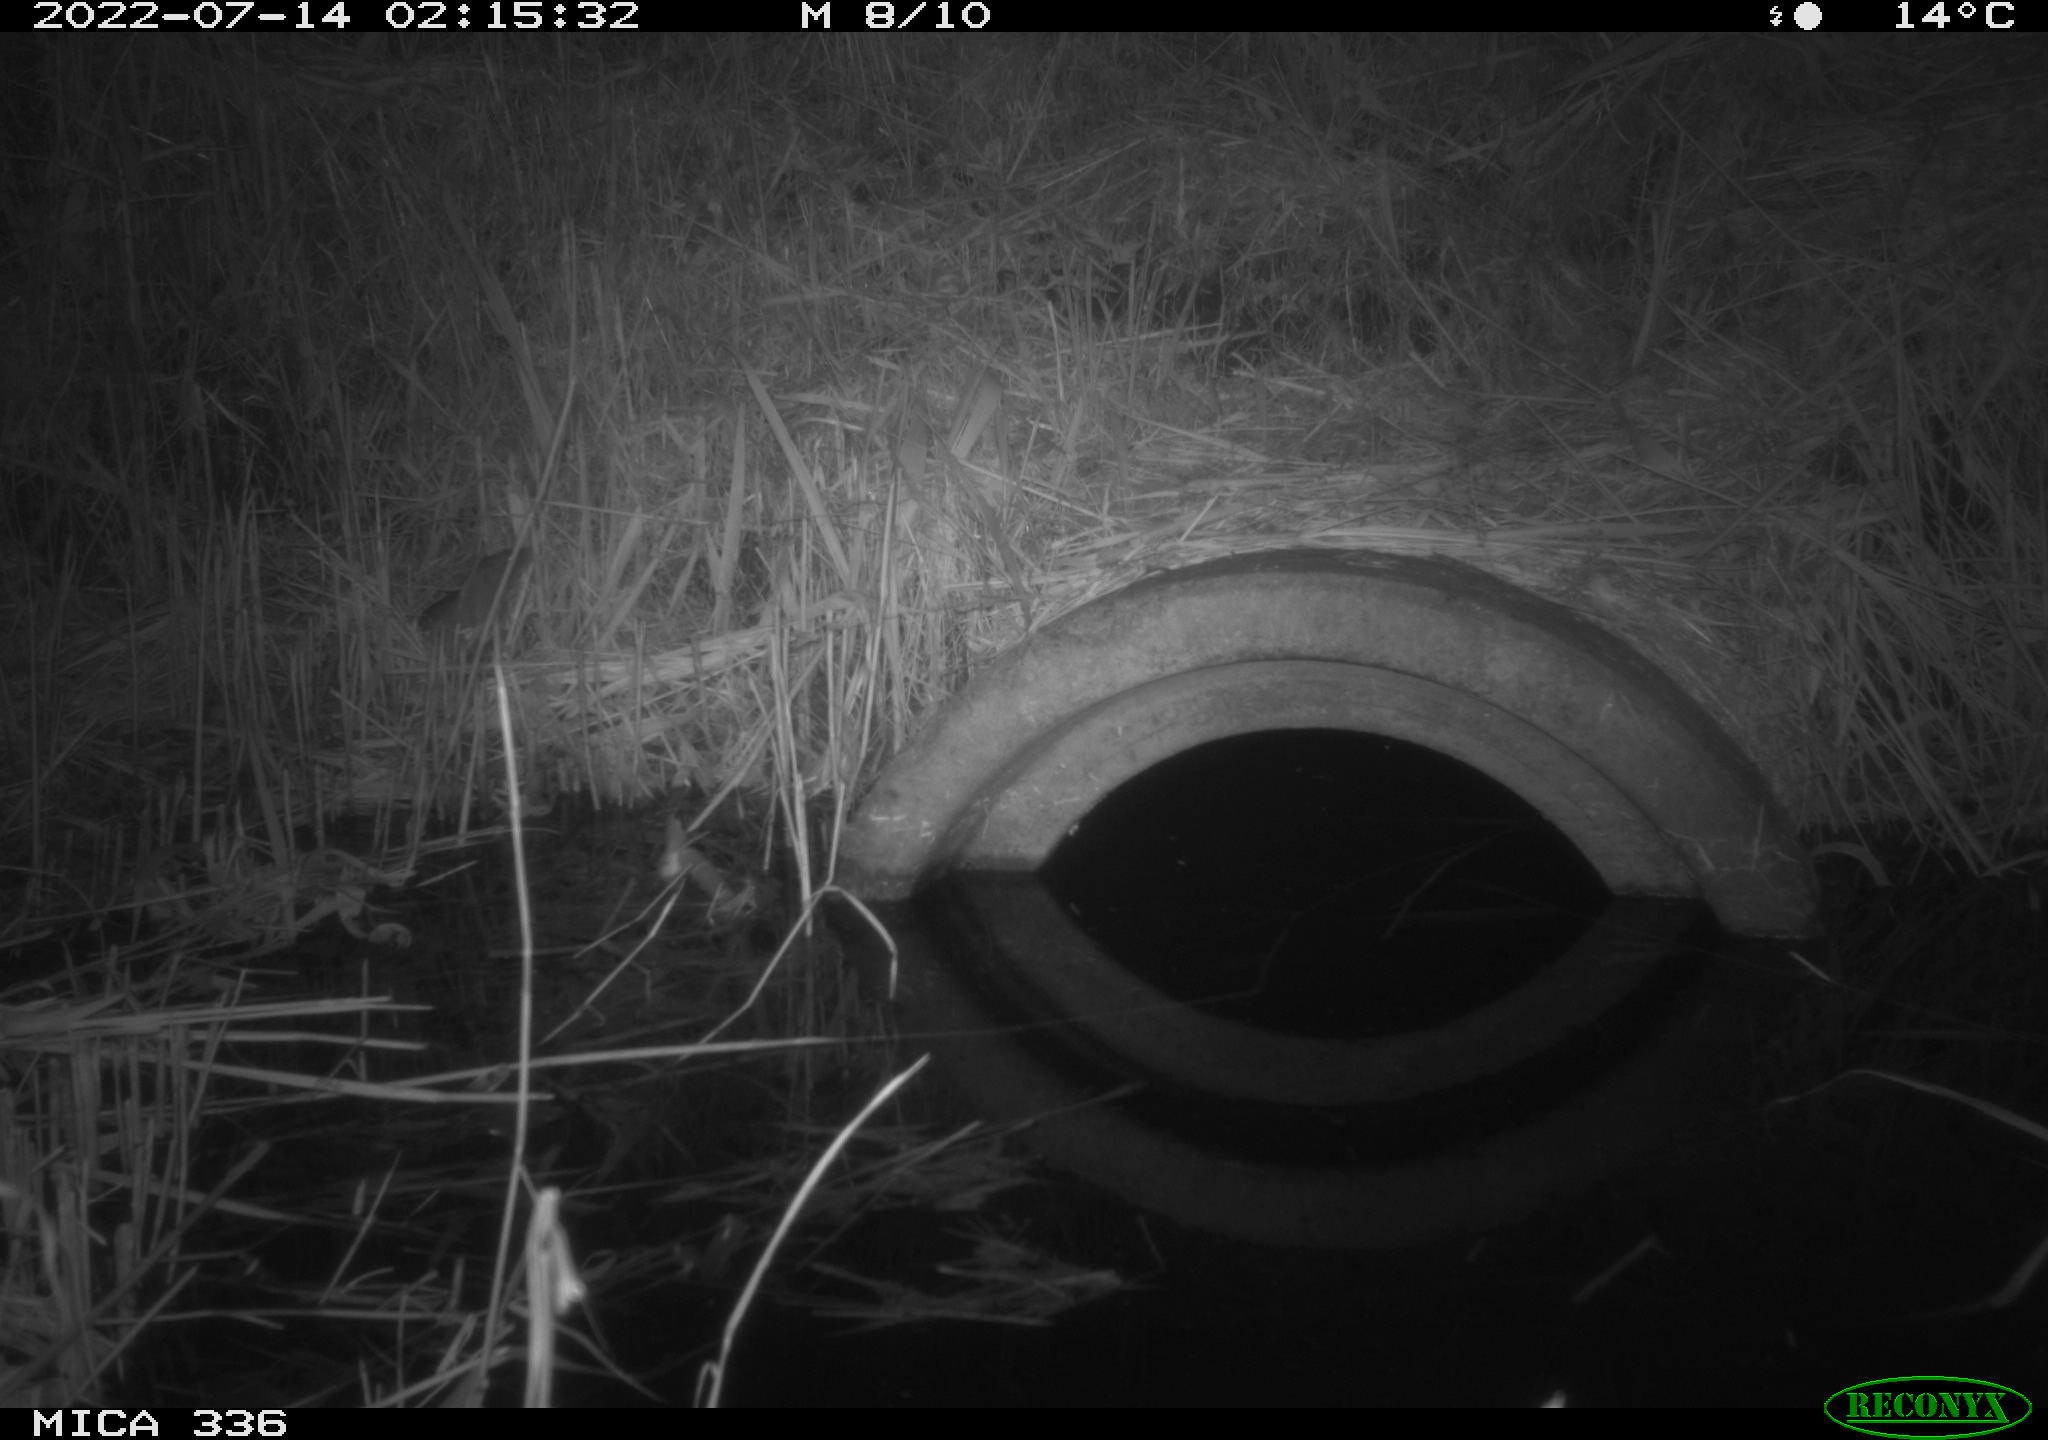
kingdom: Animalia
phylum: Chordata
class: Mammalia
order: Rodentia
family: Muridae
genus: Rattus
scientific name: Rattus norvegicus
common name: Brown rat
